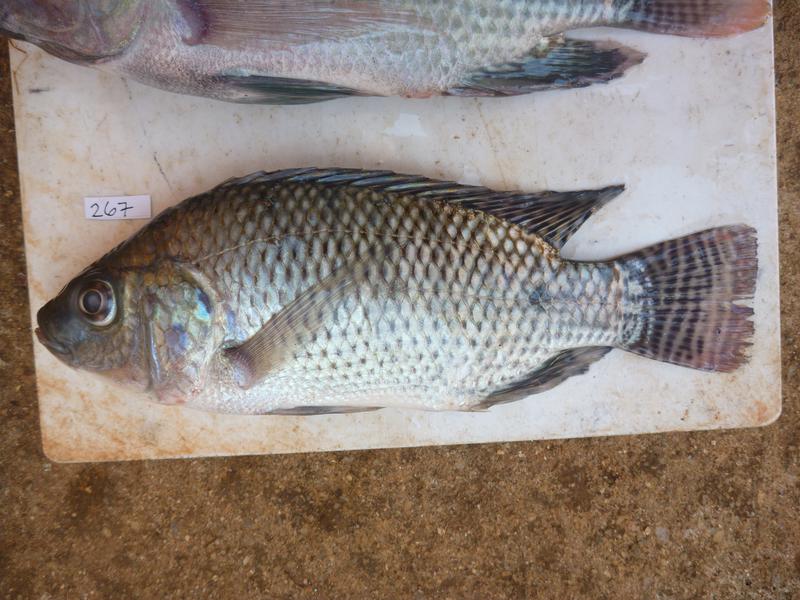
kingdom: Animalia
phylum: Chordata
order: Perciformes
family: Cichlidae
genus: Oreochromis
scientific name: Oreochromis niloticus
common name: Nile tilapia
